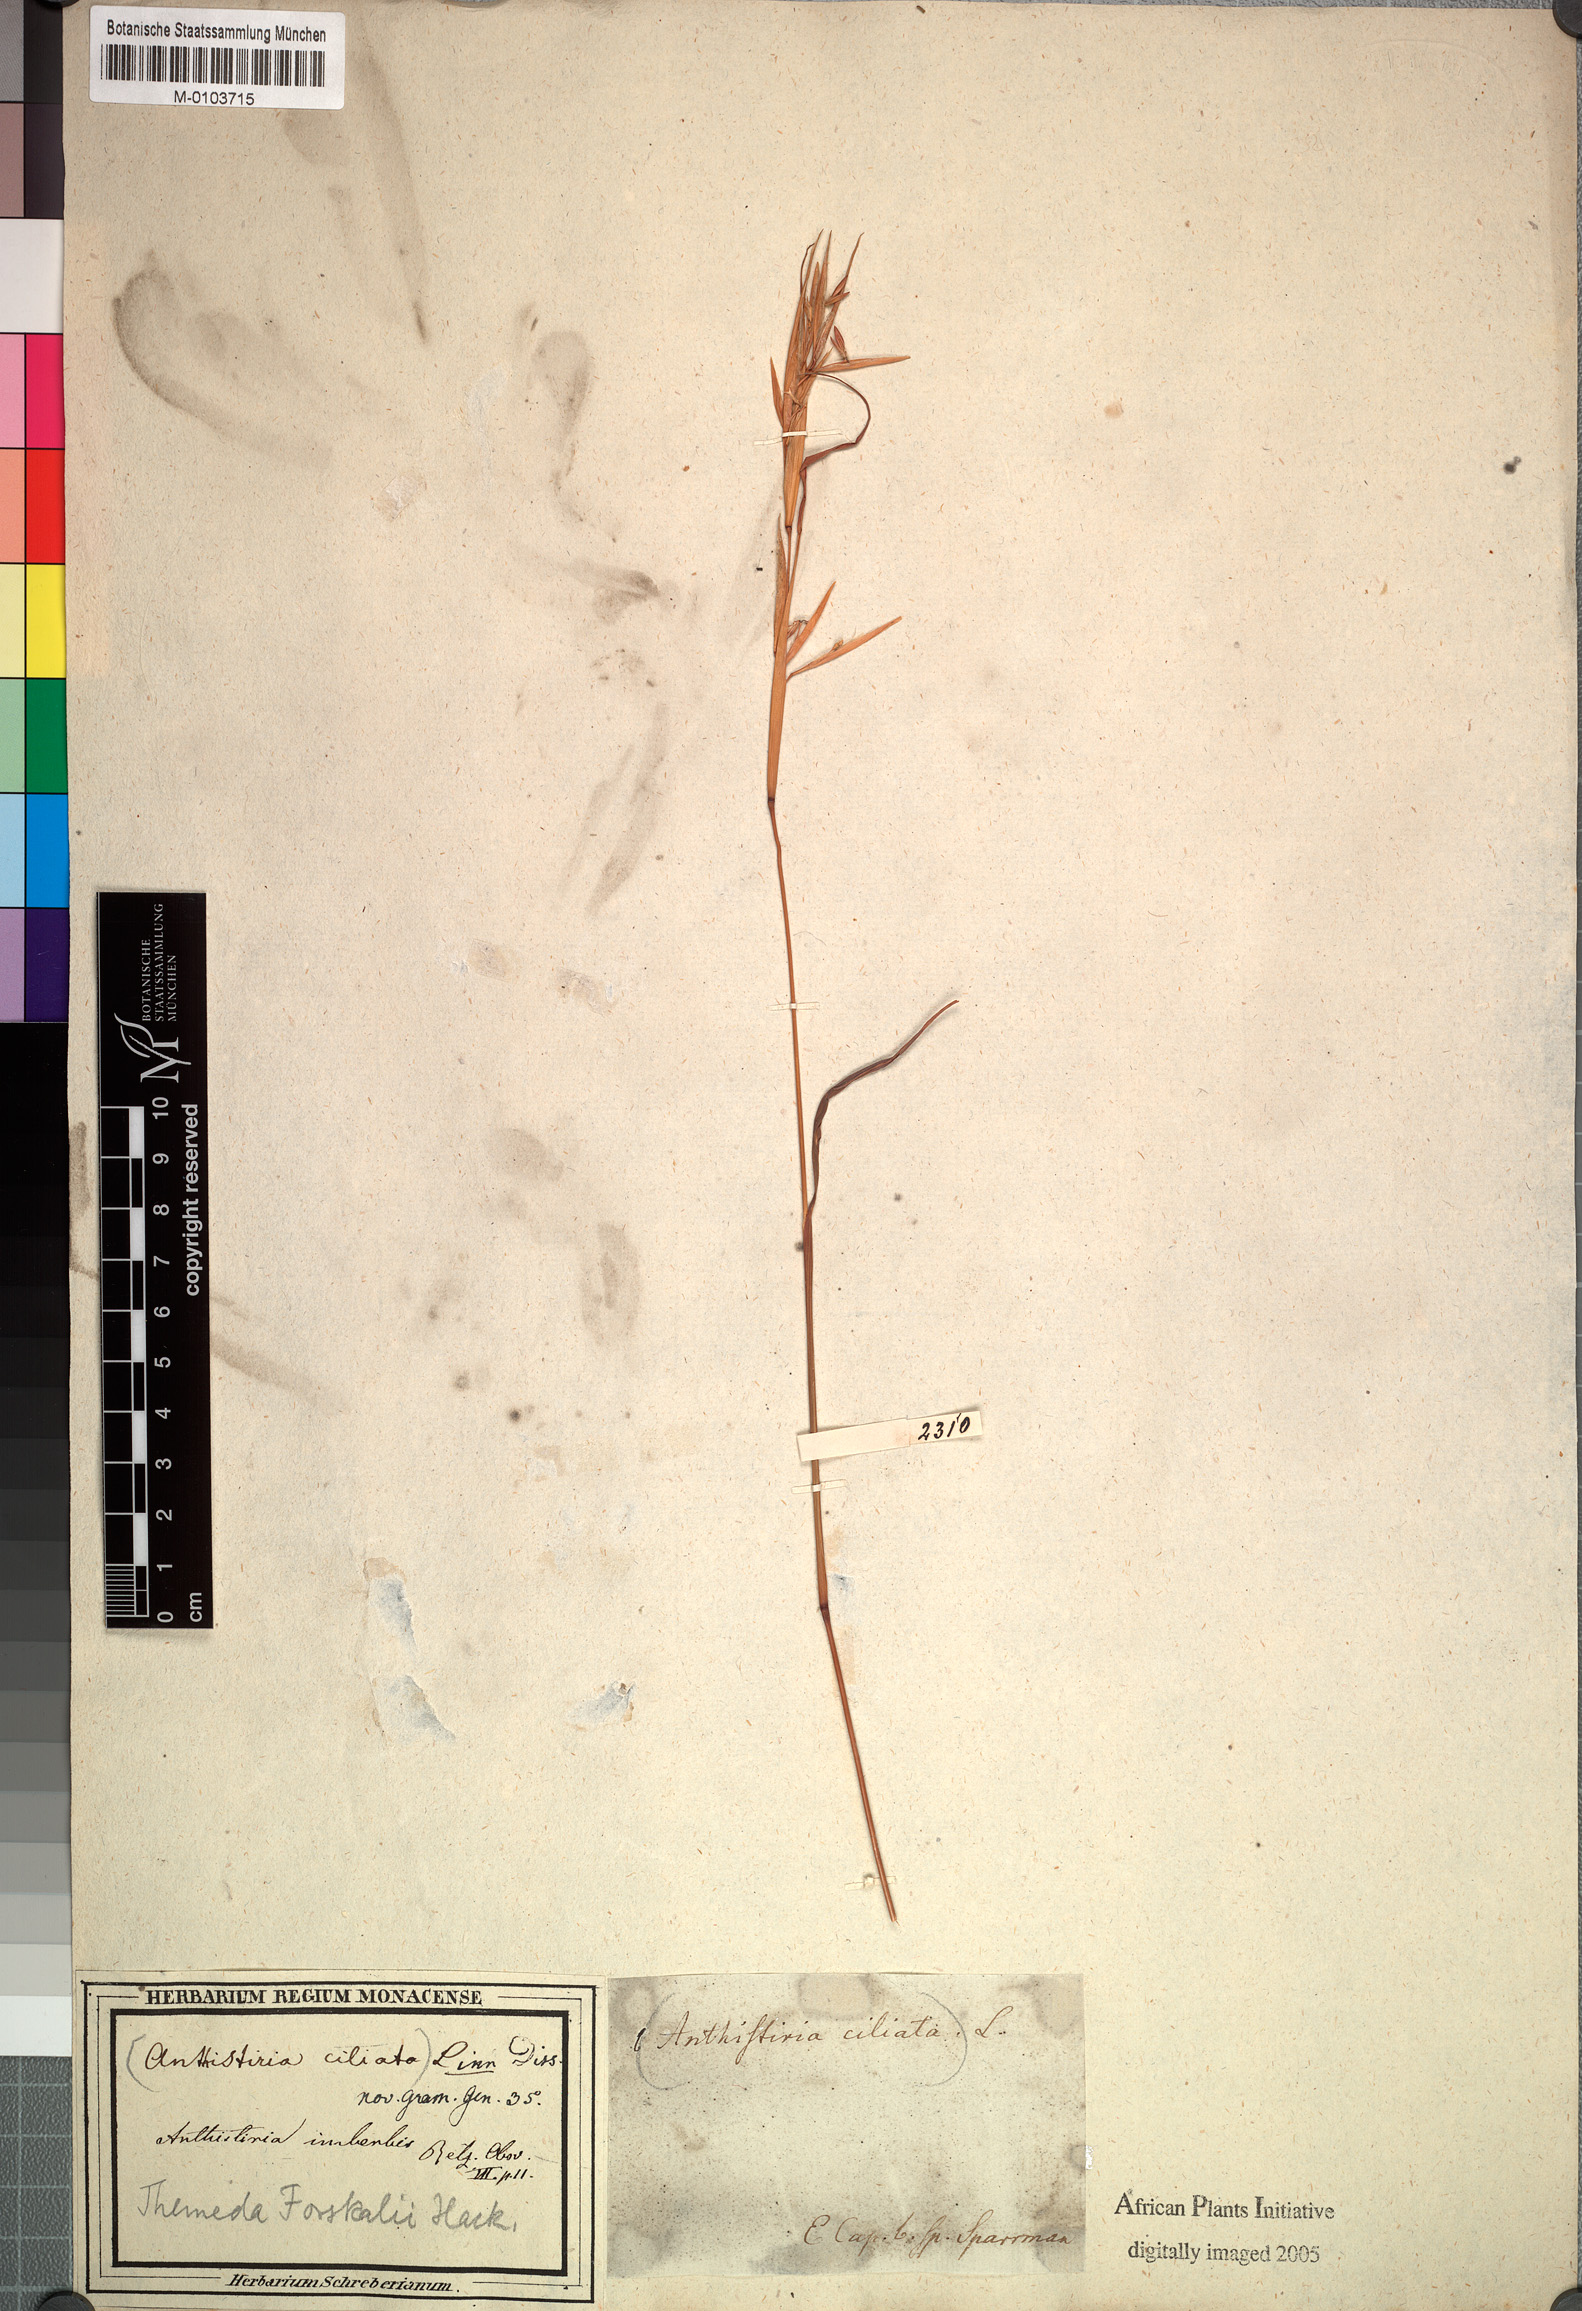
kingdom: Plantae
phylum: Tracheophyta
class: Liliopsida
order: Poales
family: Poaceae
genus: Themeda
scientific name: Themeda triandra
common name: Kangaroo grass
